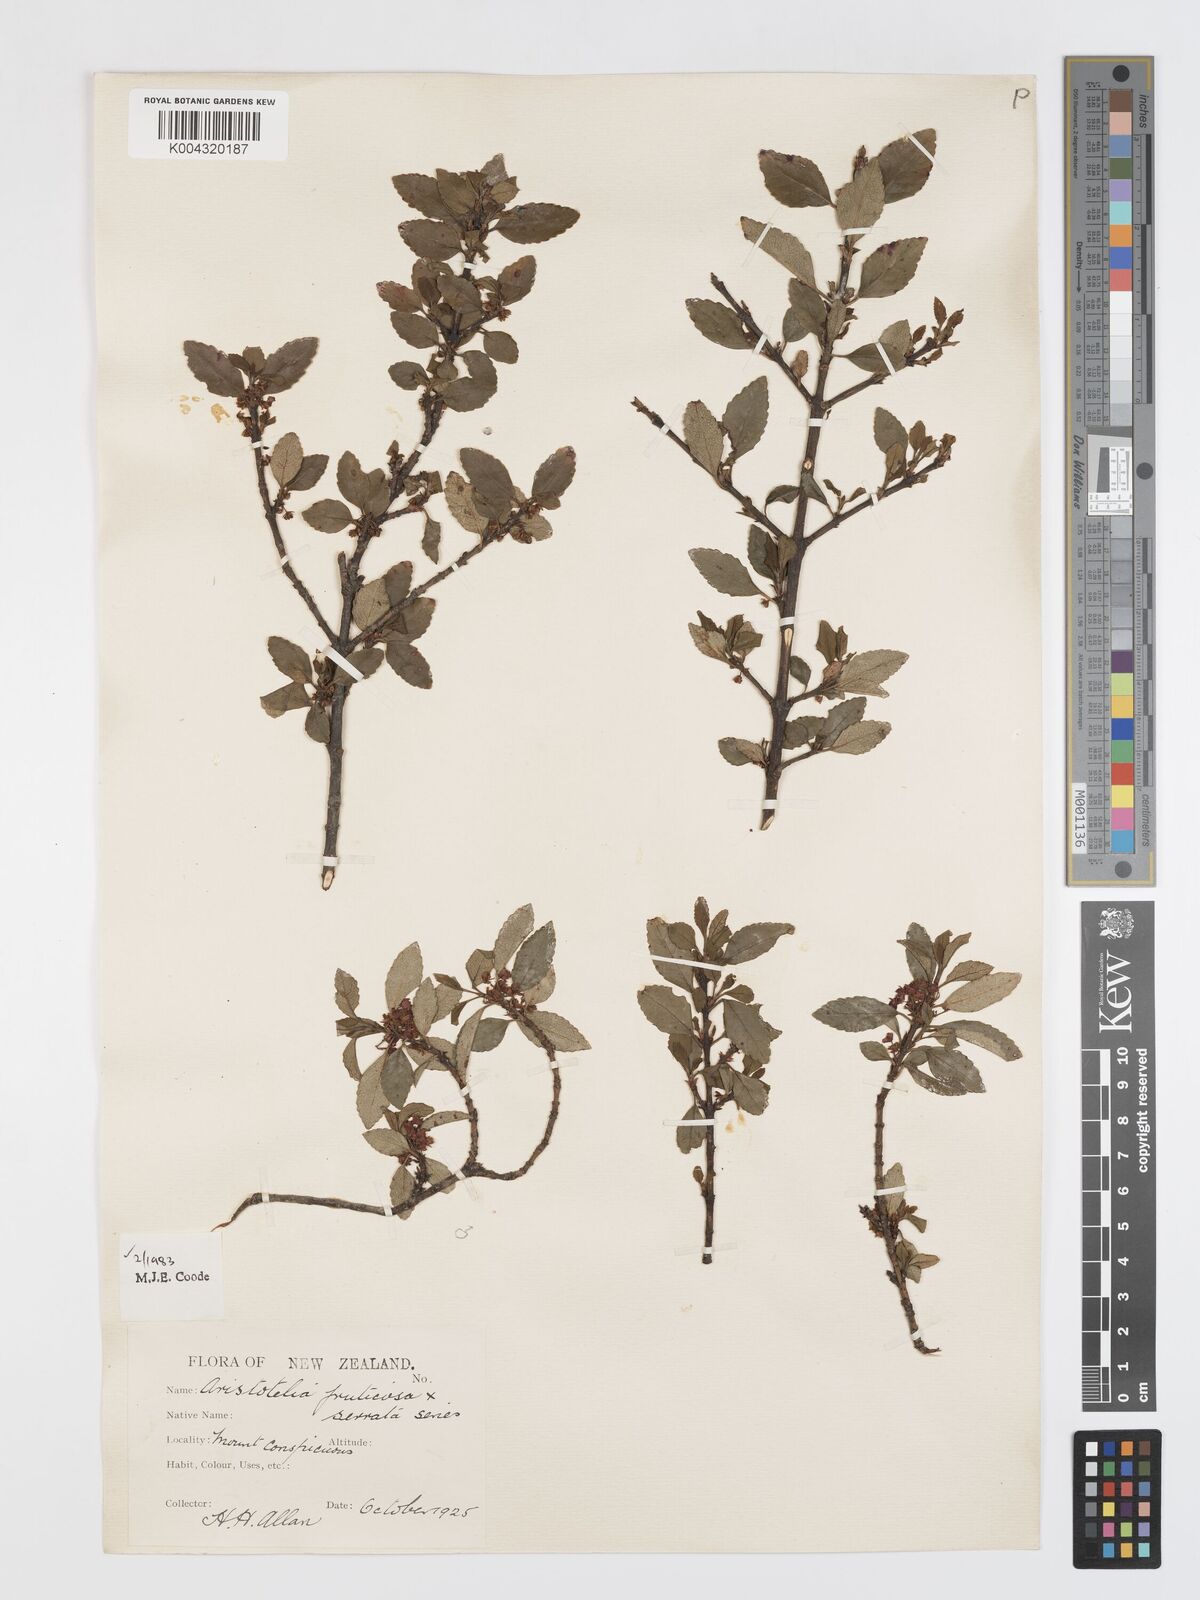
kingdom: Plantae
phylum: Tracheophyta
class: Magnoliopsida
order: Oxalidales
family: Elaeocarpaceae
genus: Aristotelia
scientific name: Aristotelia fruticosa
